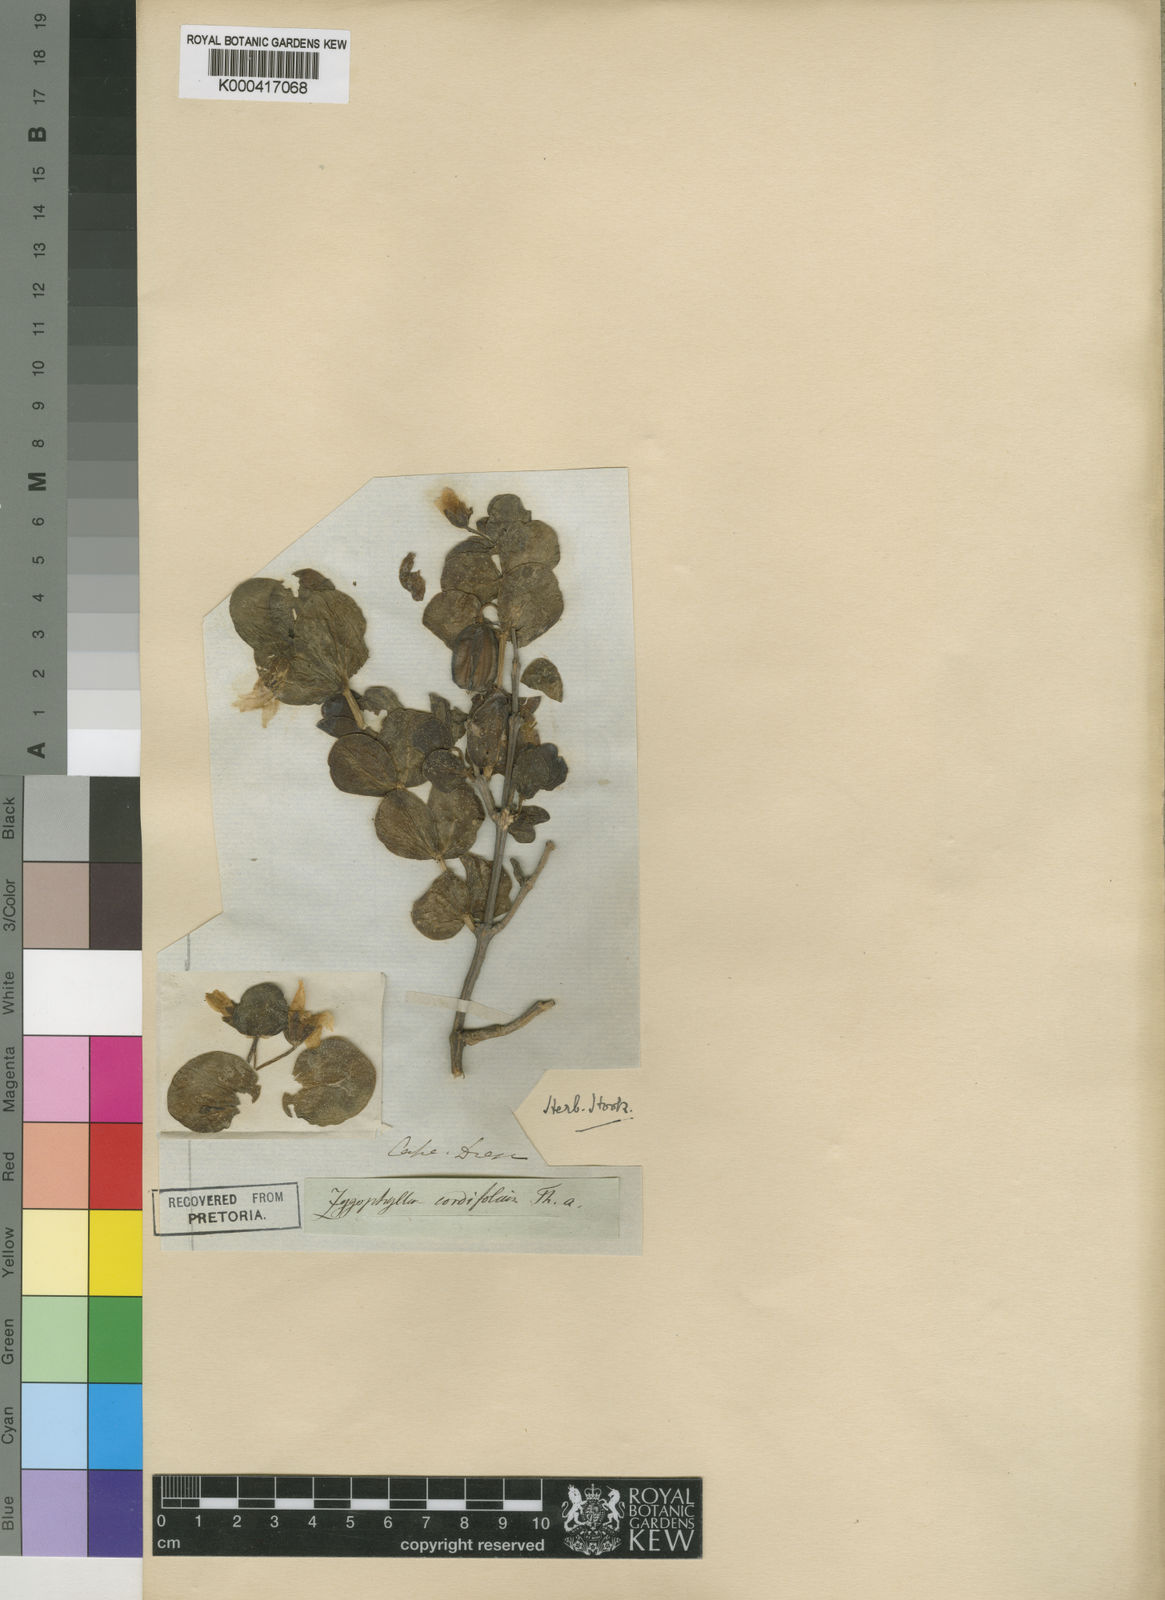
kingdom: Plantae
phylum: Tracheophyta
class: Magnoliopsida
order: Zygophyllales
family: Zygophyllaceae
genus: Roepera
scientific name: Roepera cordifolia
